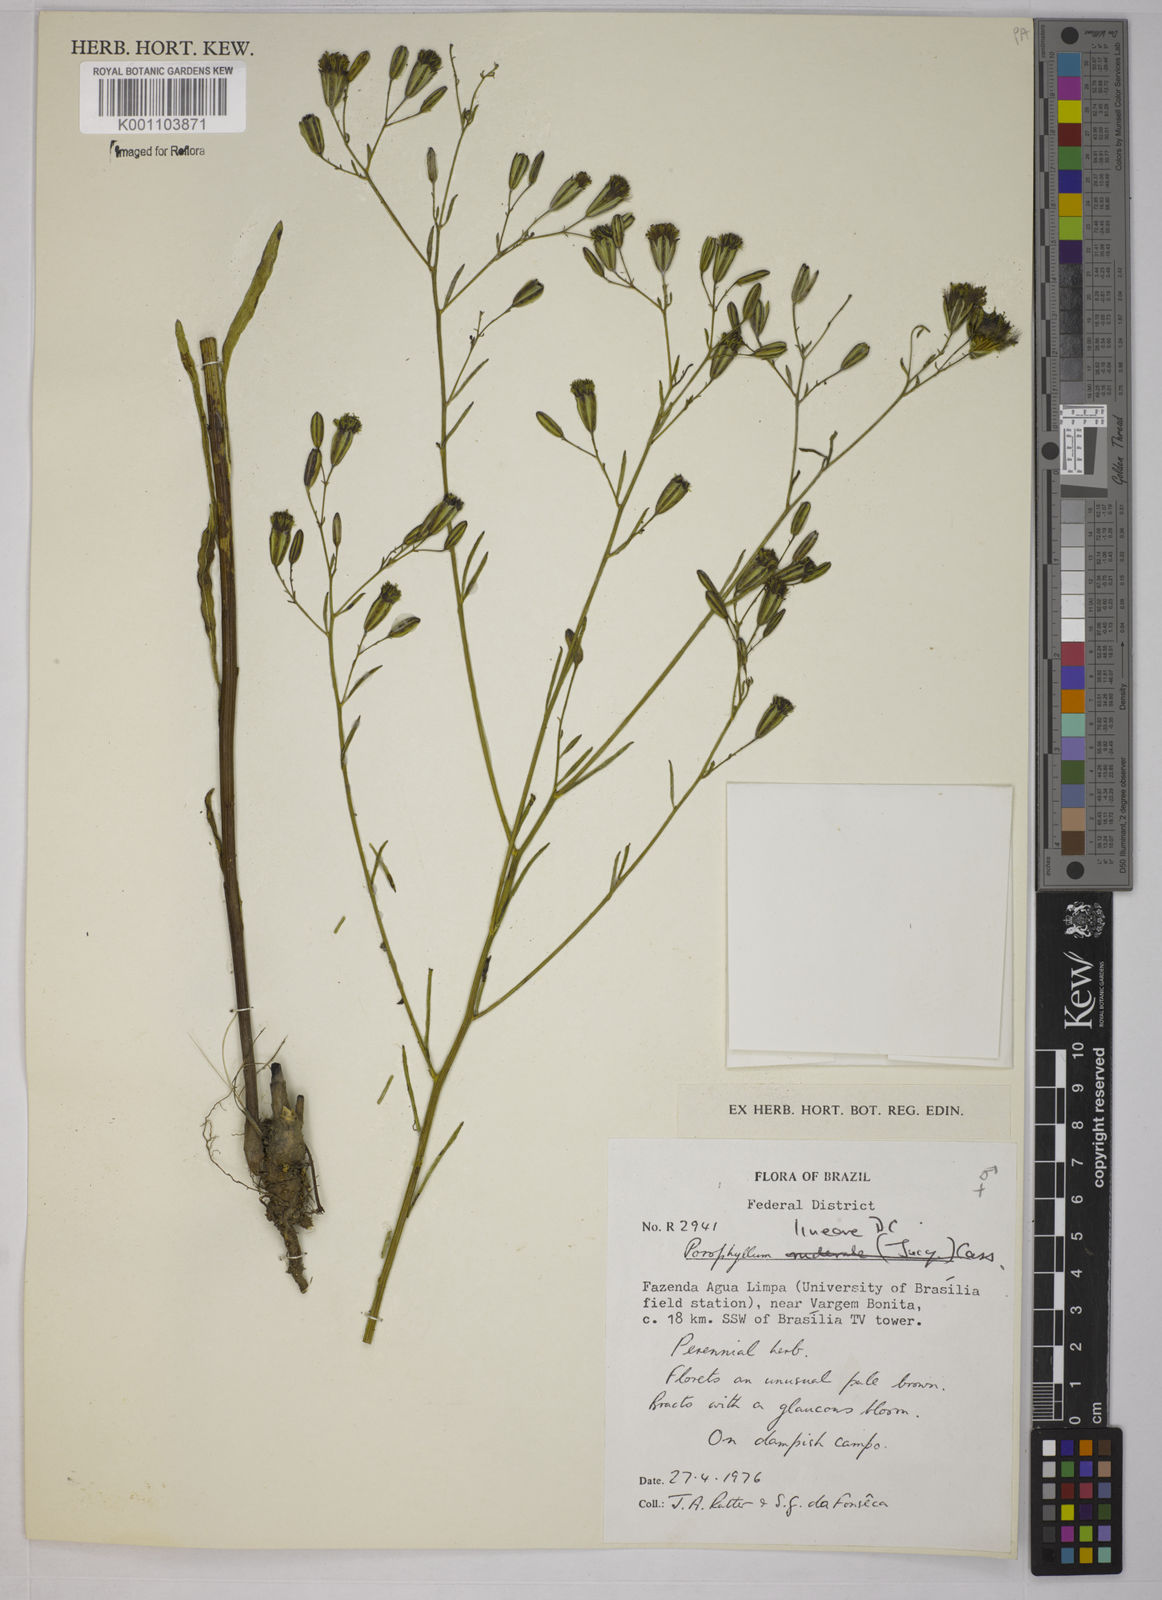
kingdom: Plantae
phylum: Tracheophyta
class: Magnoliopsida
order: Asterales
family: Asteraceae
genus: Porophyllum
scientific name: Porophyllum obscurum
